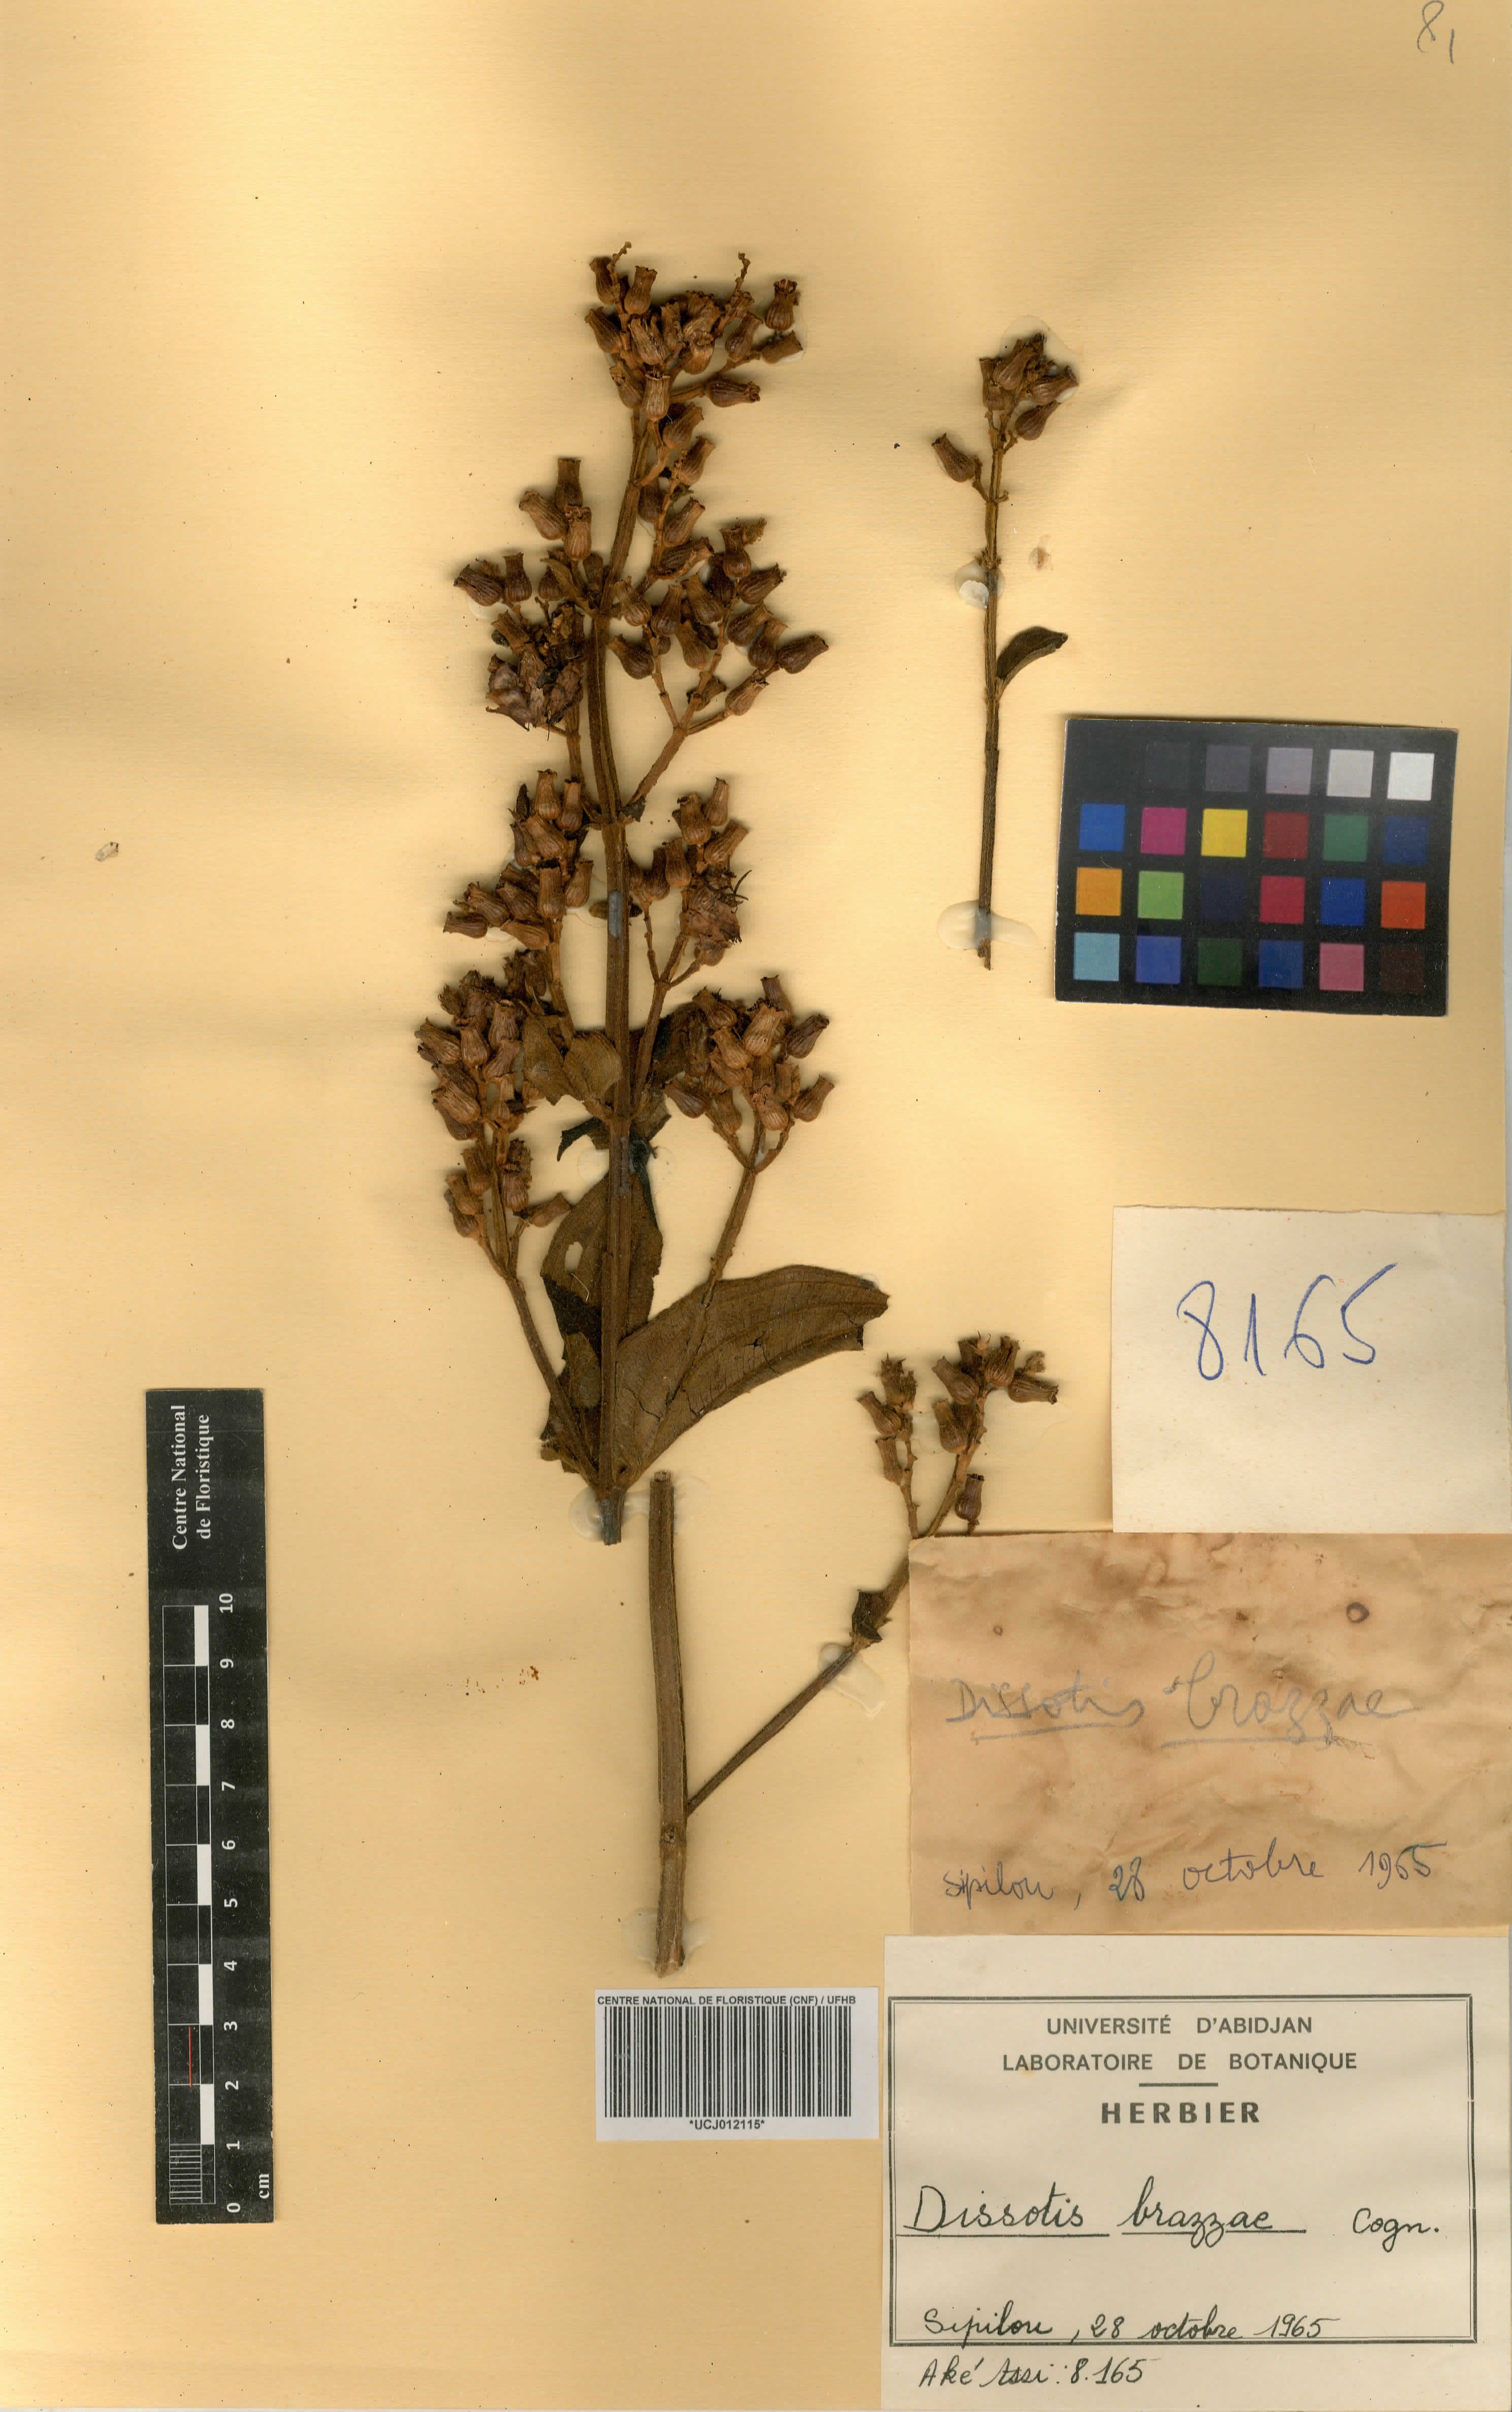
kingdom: Plantae
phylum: Tracheophyta
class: Magnoliopsida
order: Myrtales
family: Melastomataceae
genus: Dupineta
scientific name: Dupineta brazzae
